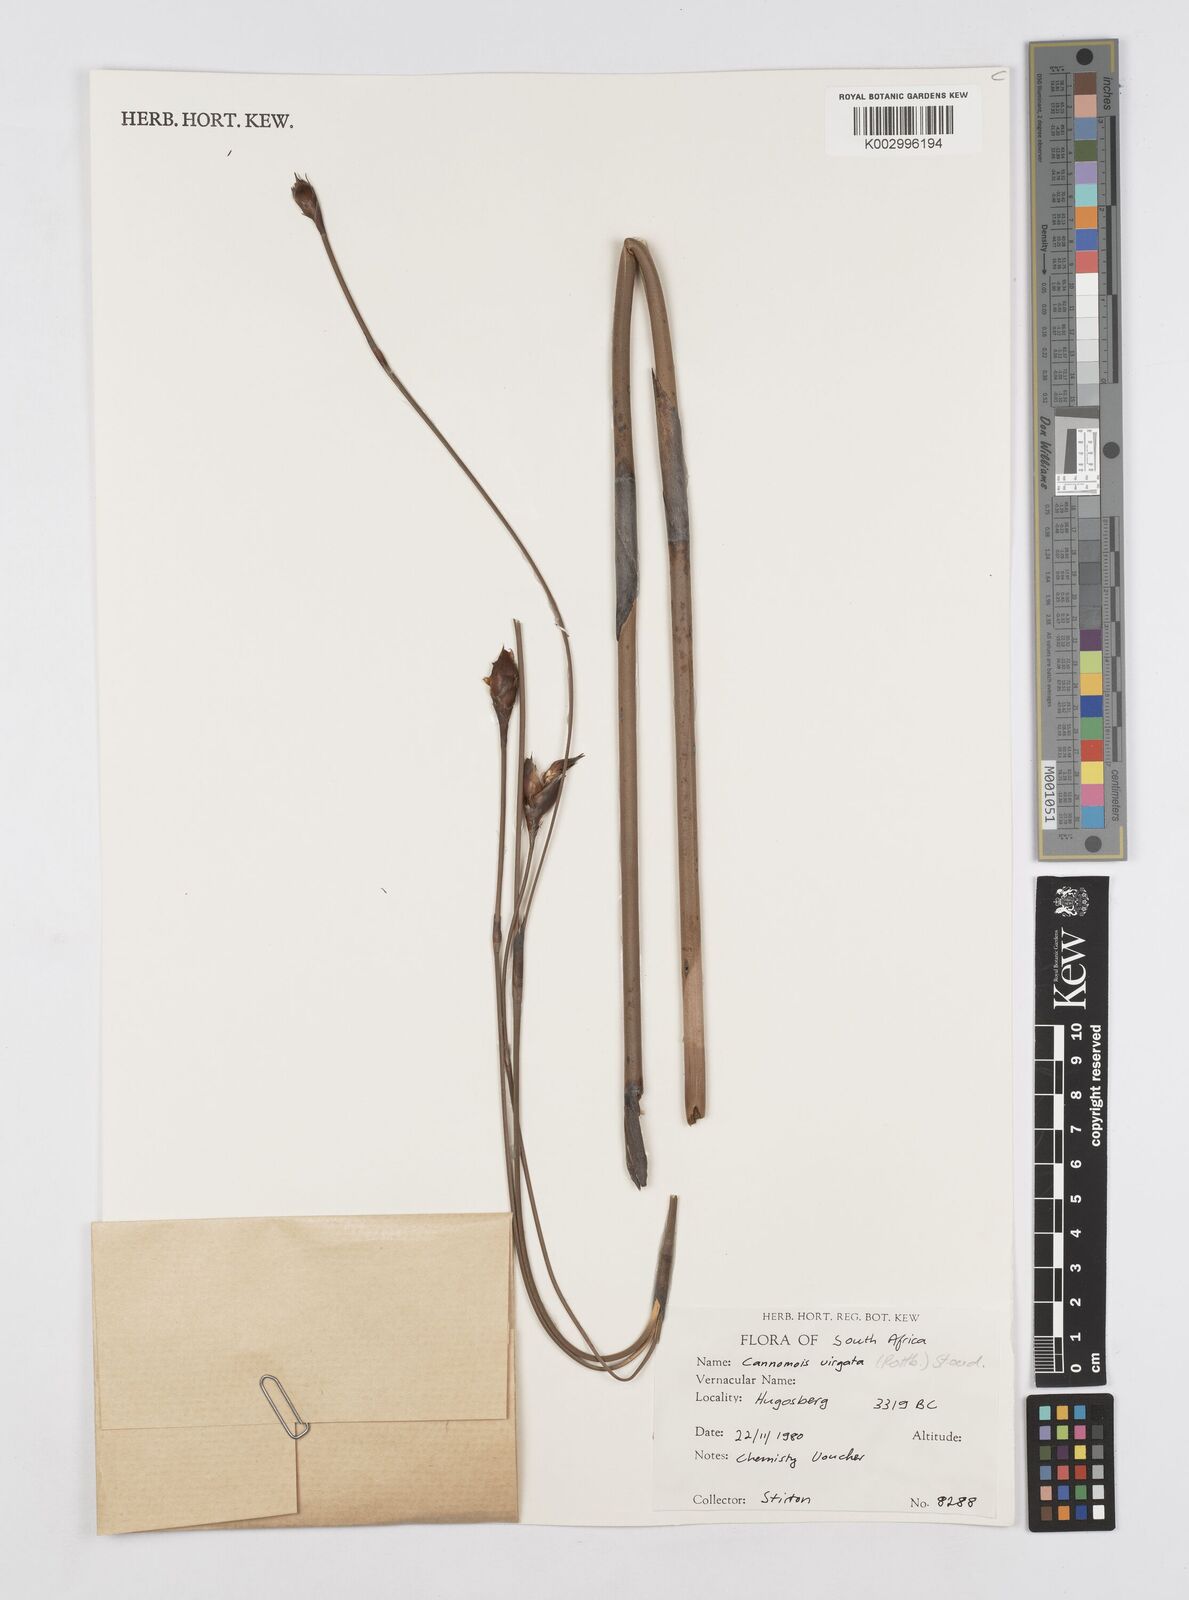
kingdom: Plantae
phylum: Tracheophyta
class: Liliopsida
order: Poales
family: Restionaceae
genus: Cannomois
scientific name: Cannomois virgata
